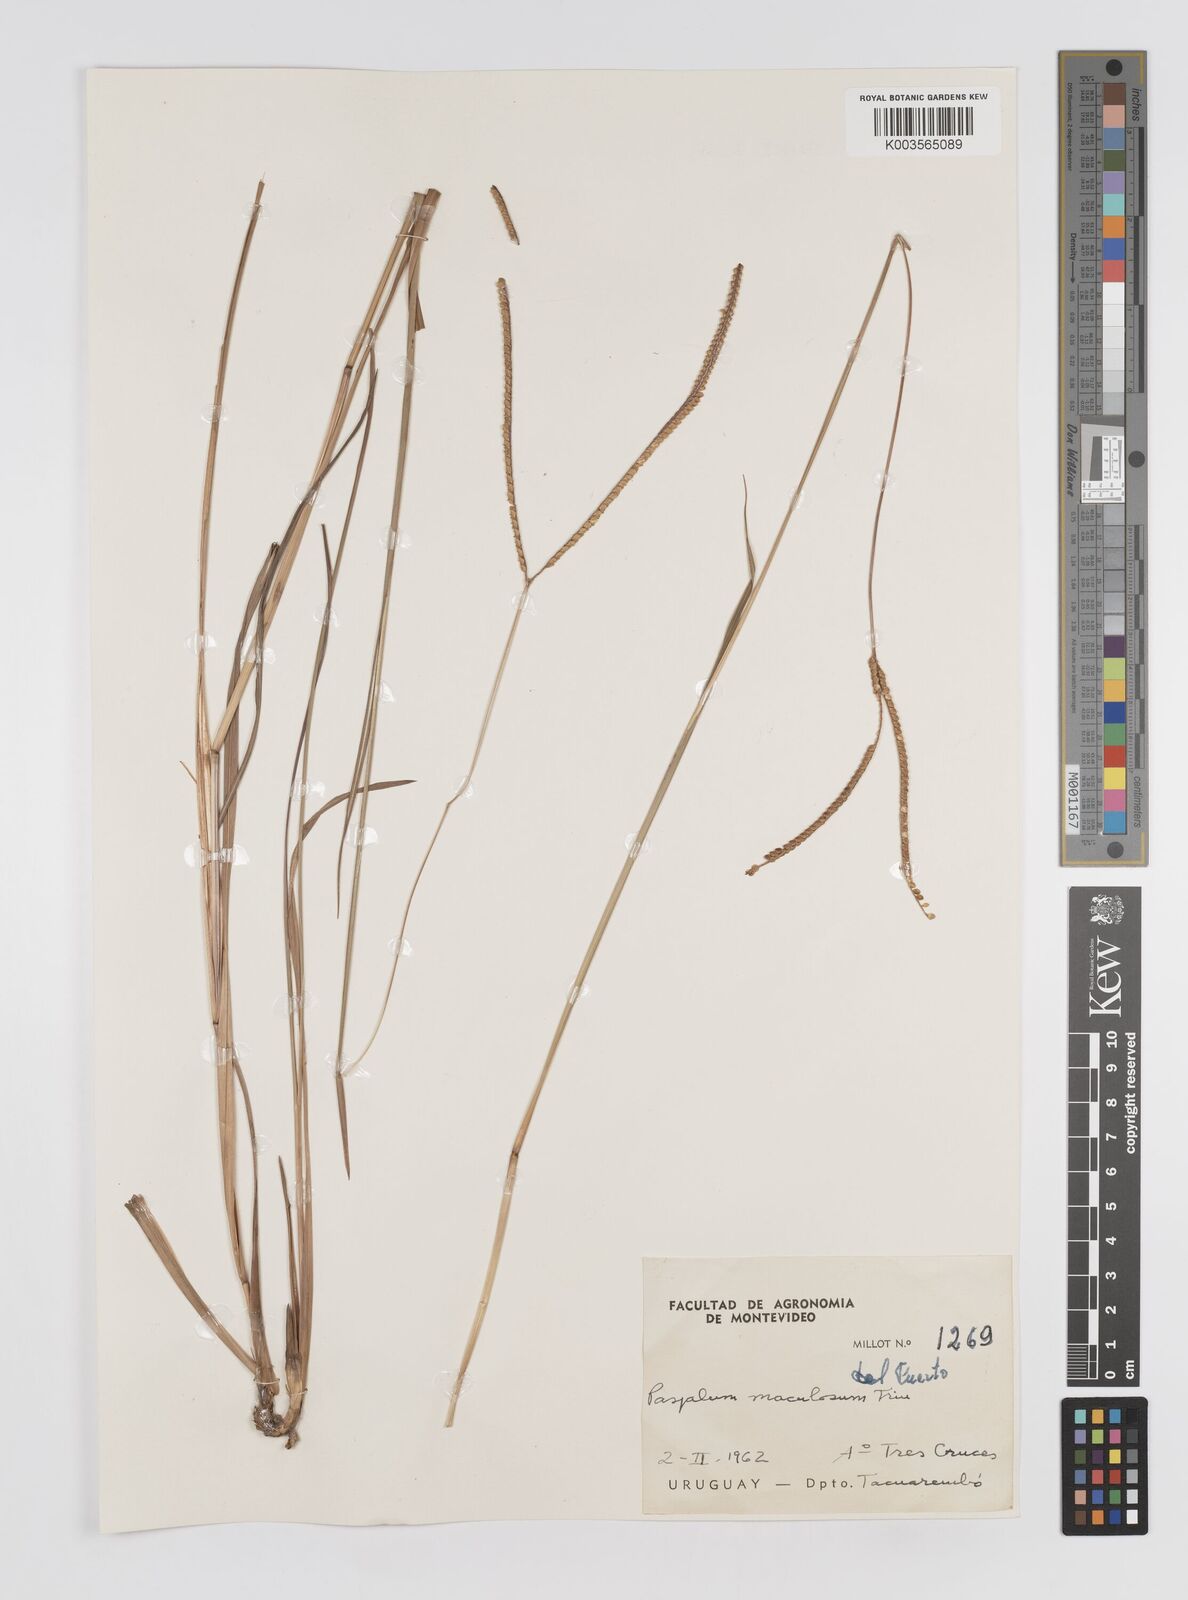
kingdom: Plantae
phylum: Tracheophyta
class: Liliopsida
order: Poales
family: Poaceae
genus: Paspalum
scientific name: Paspalum maculosum
